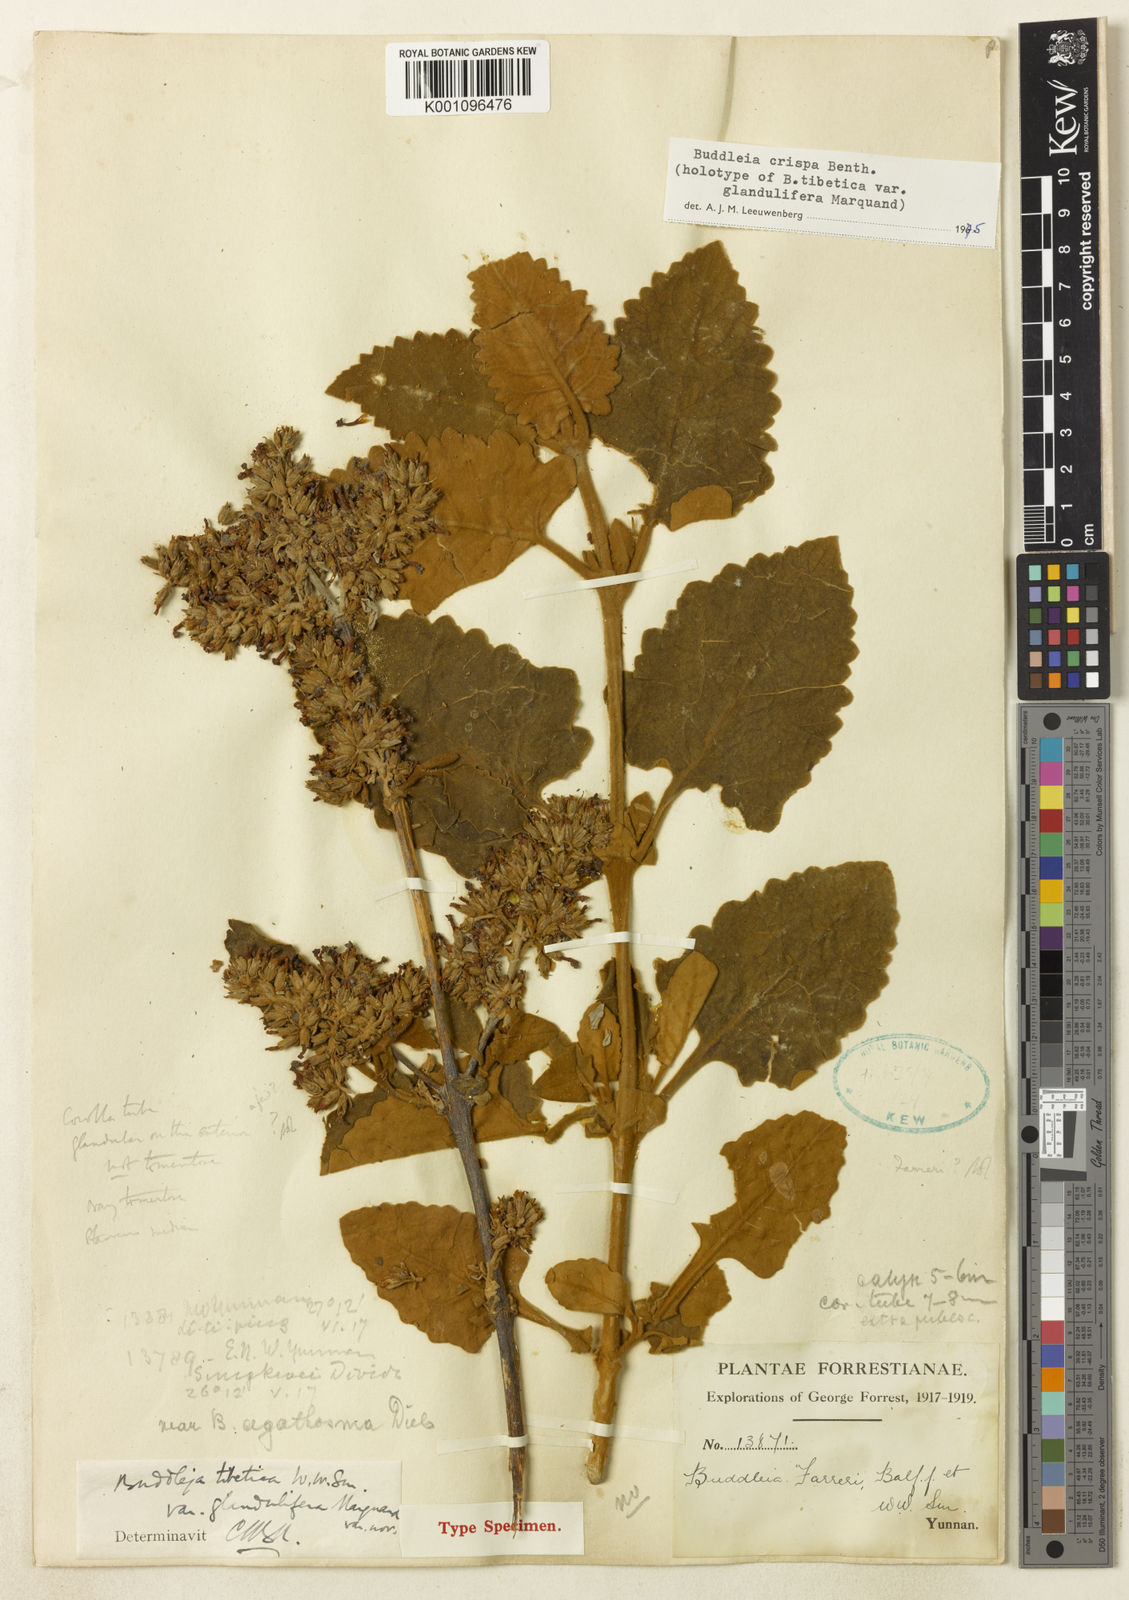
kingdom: Plantae
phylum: Tracheophyta
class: Magnoliopsida
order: Lamiales
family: Scrophulariaceae
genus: Buddleja
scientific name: Buddleja crispa
